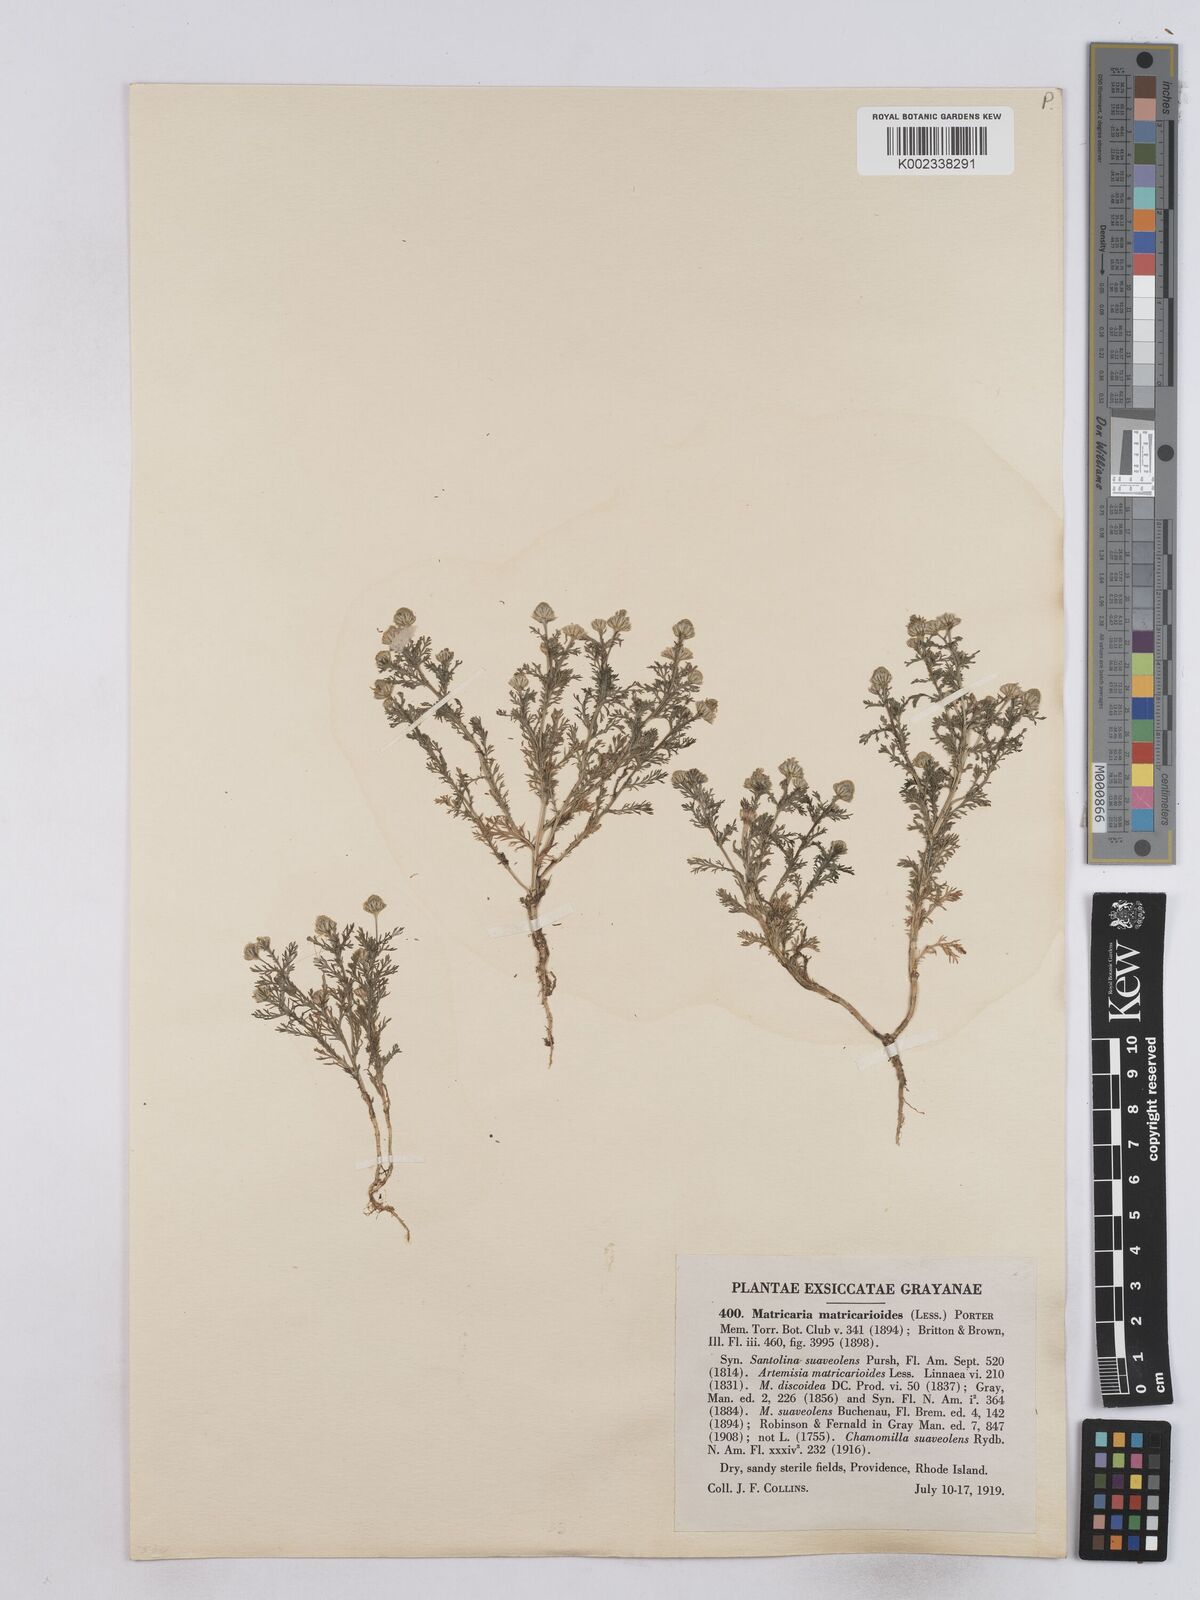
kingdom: Plantae
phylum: Tracheophyta
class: Magnoliopsida
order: Asterales
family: Asteraceae
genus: Matricaria
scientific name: Matricaria discoidea
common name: Disc mayweed
